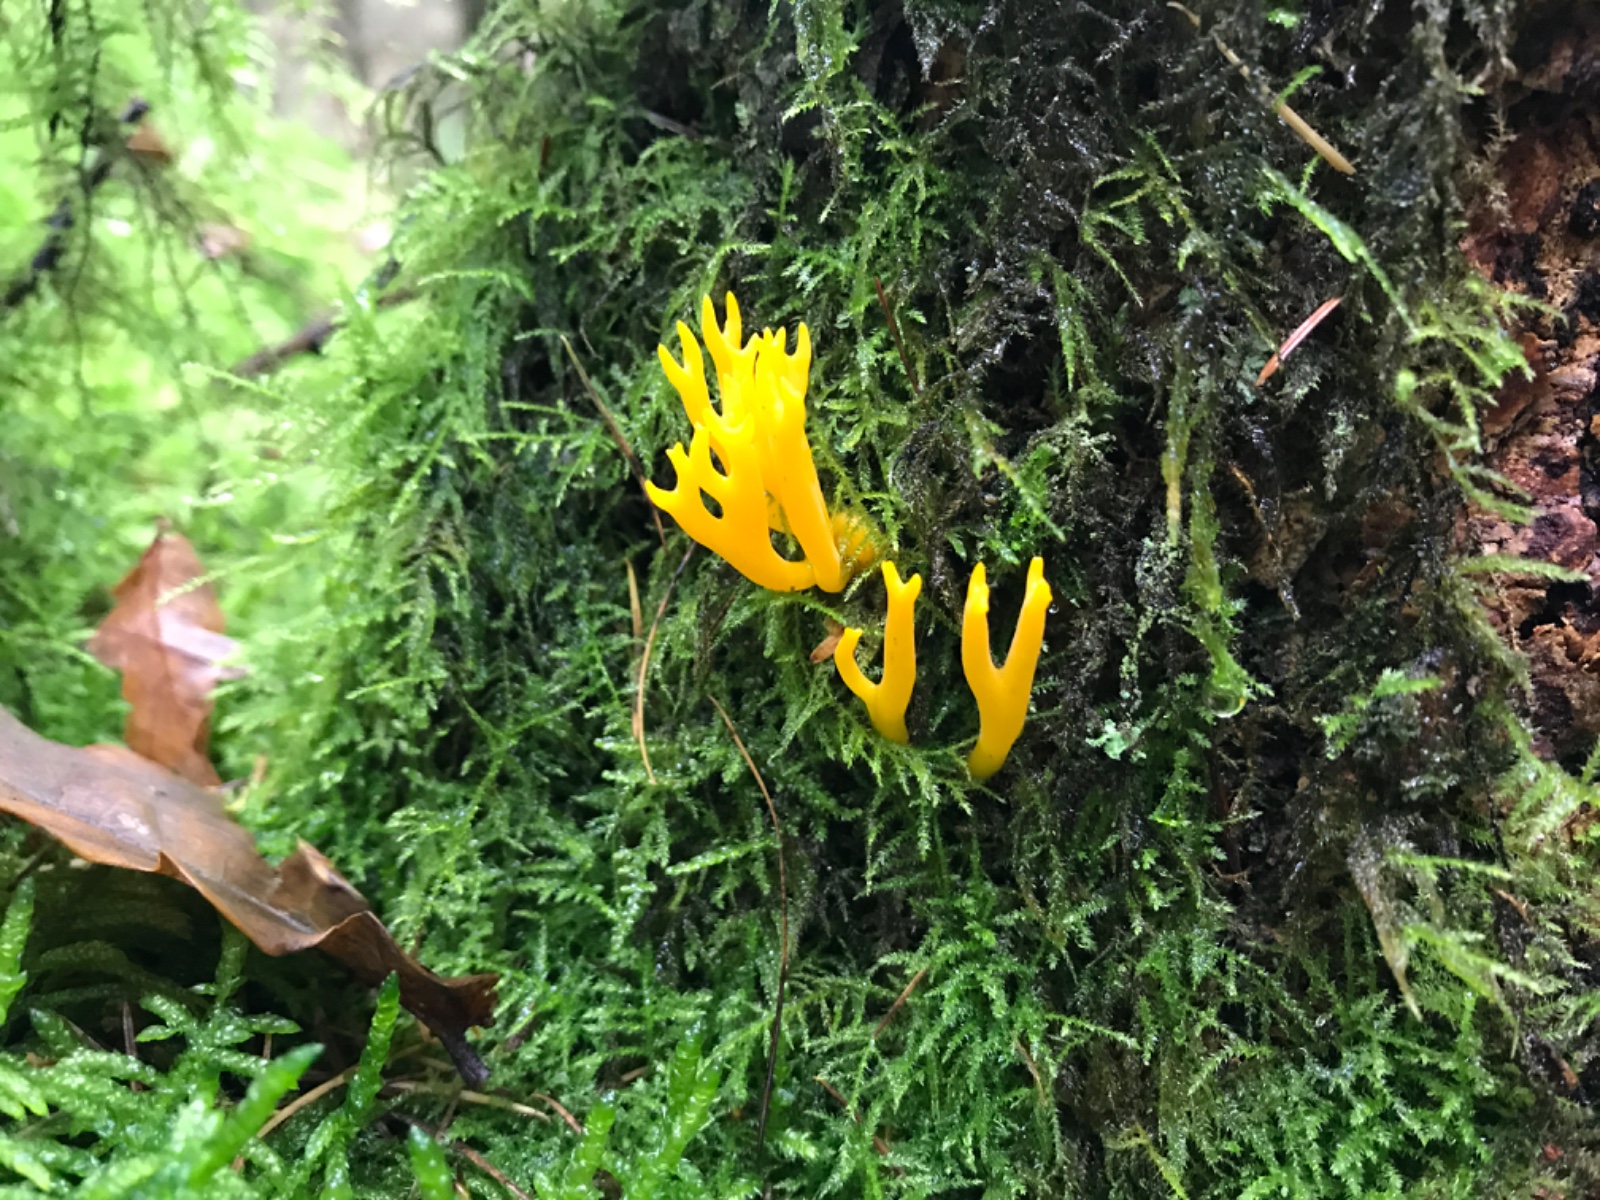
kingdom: Fungi
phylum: Basidiomycota
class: Dacrymycetes
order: Dacrymycetales
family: Dacrymycetaceae
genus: Calocera
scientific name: Calocera viscosa
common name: almindelig guldgaffel
